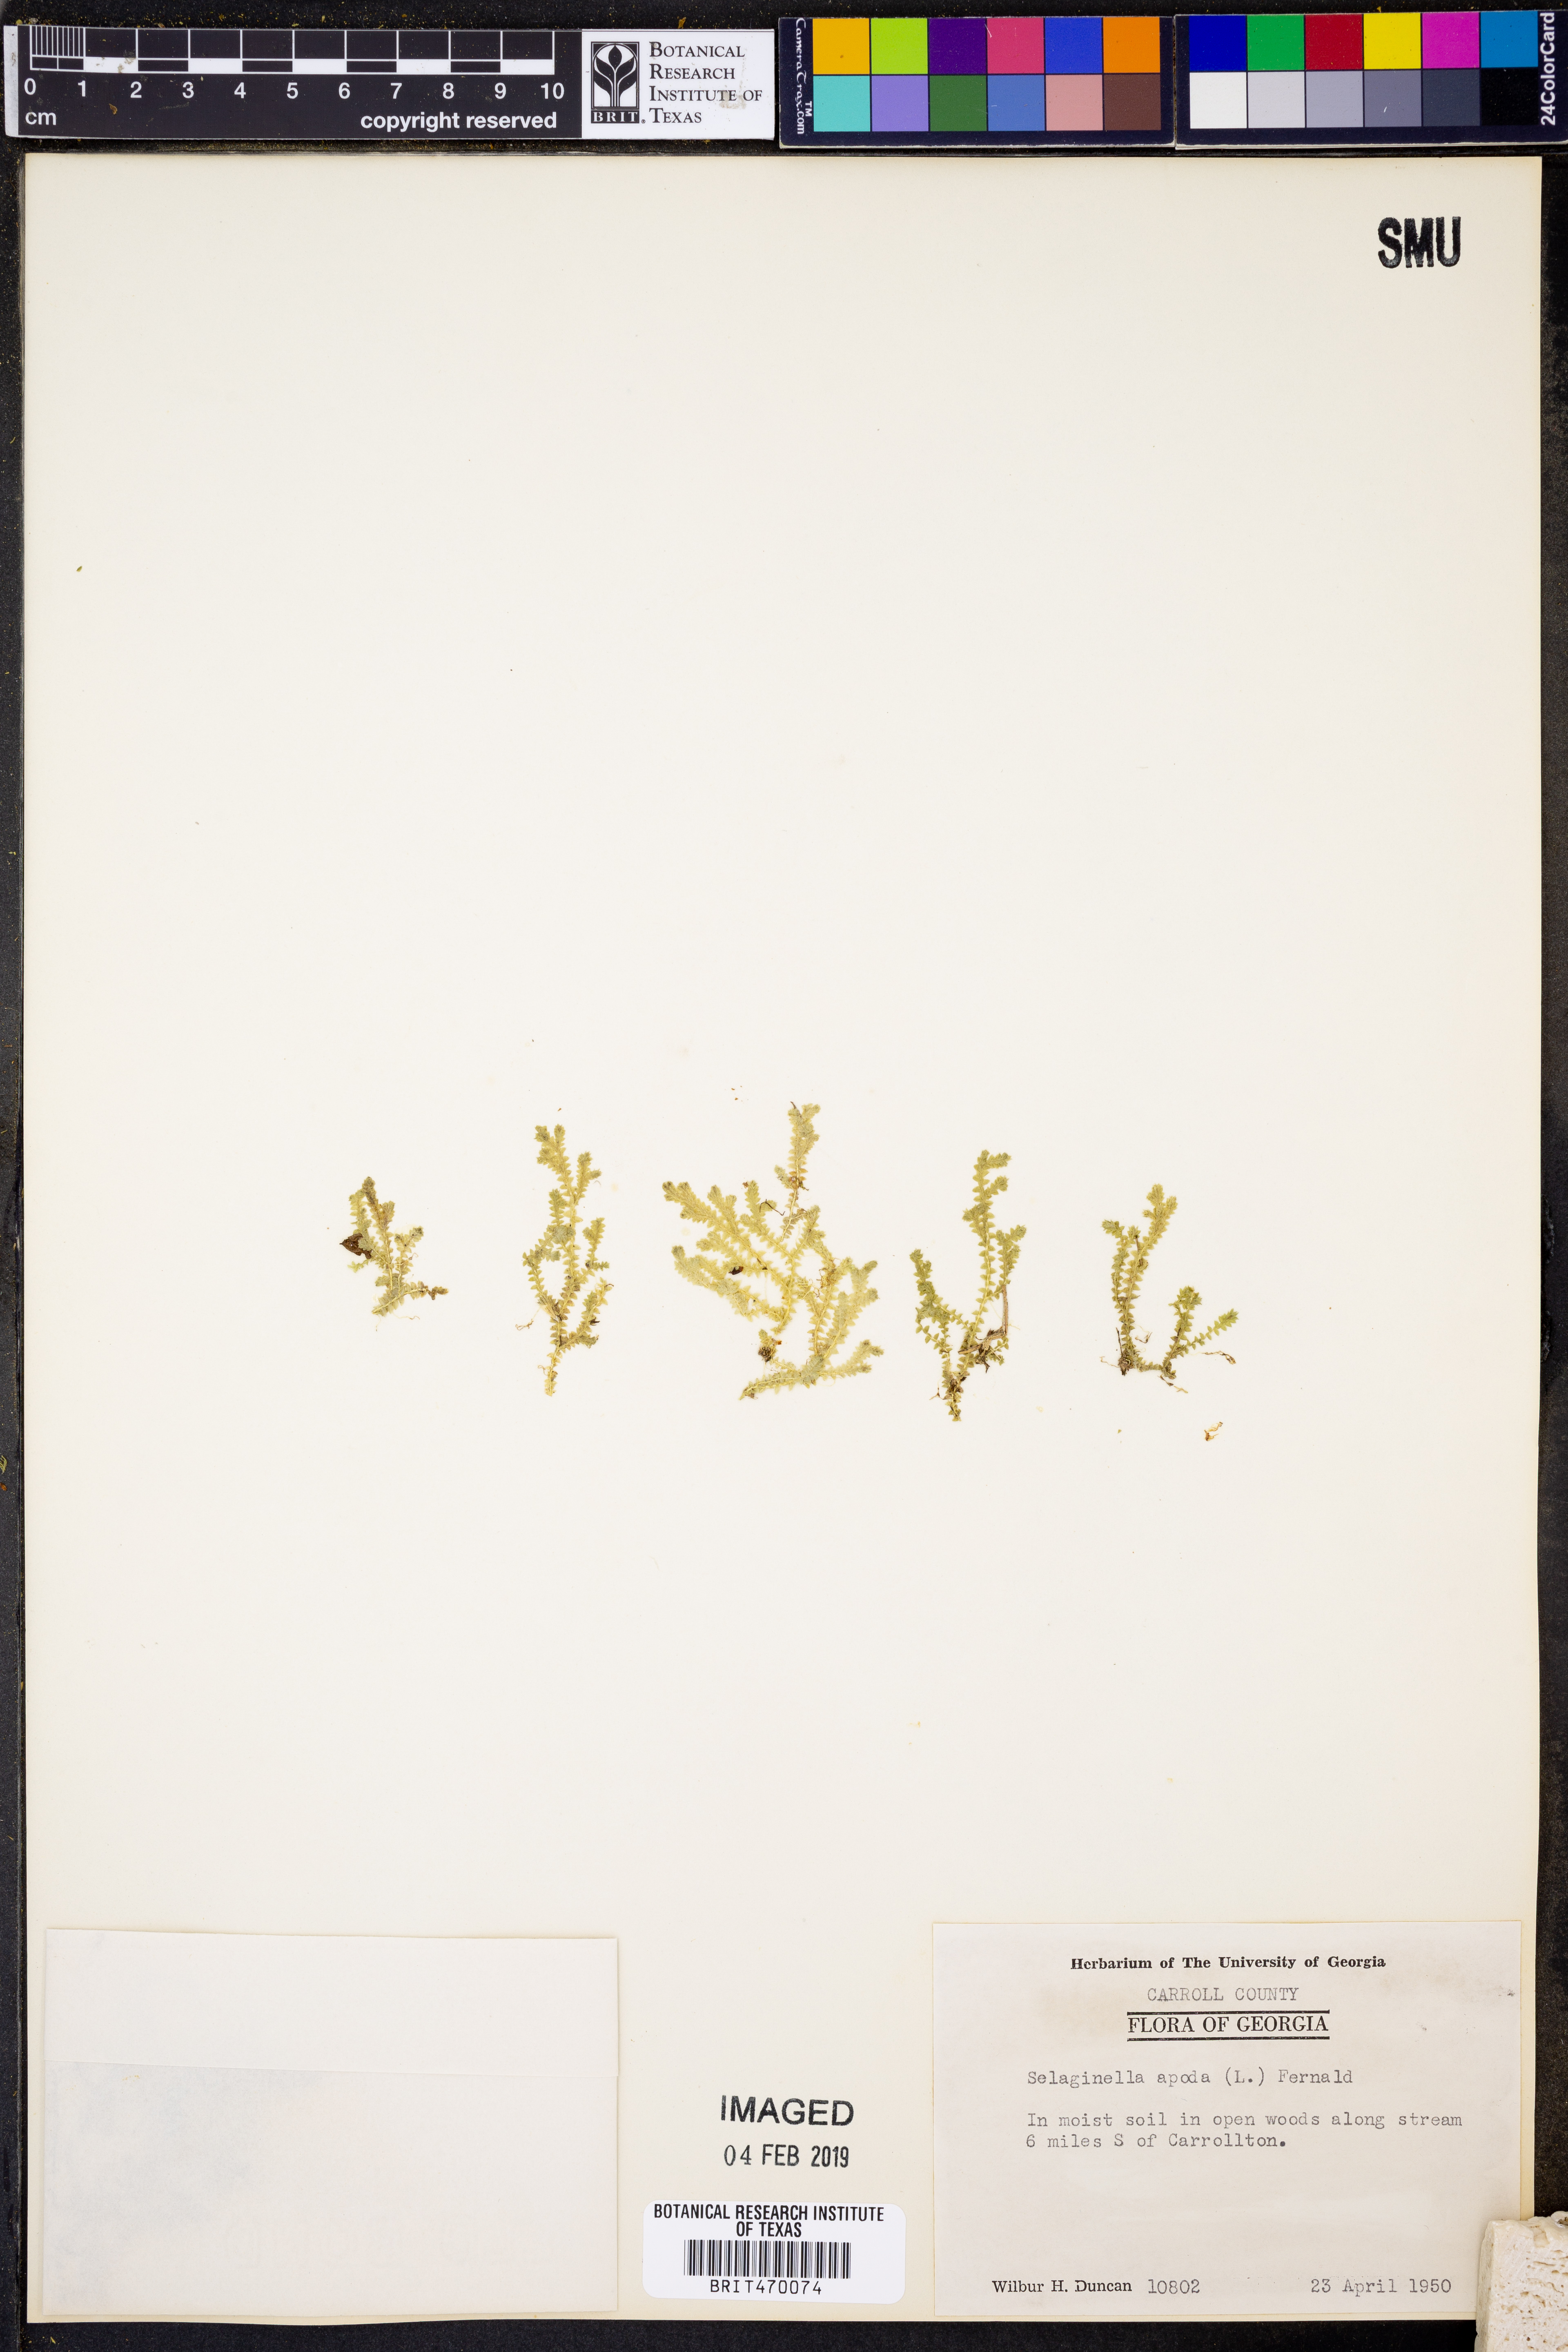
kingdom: Plantae
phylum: Tracheophyta
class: Lycopodiopsida
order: Selaginellales
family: Selaginellaceae
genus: Selaginella
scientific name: Selaginella apoda
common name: Creeping spikemoss
